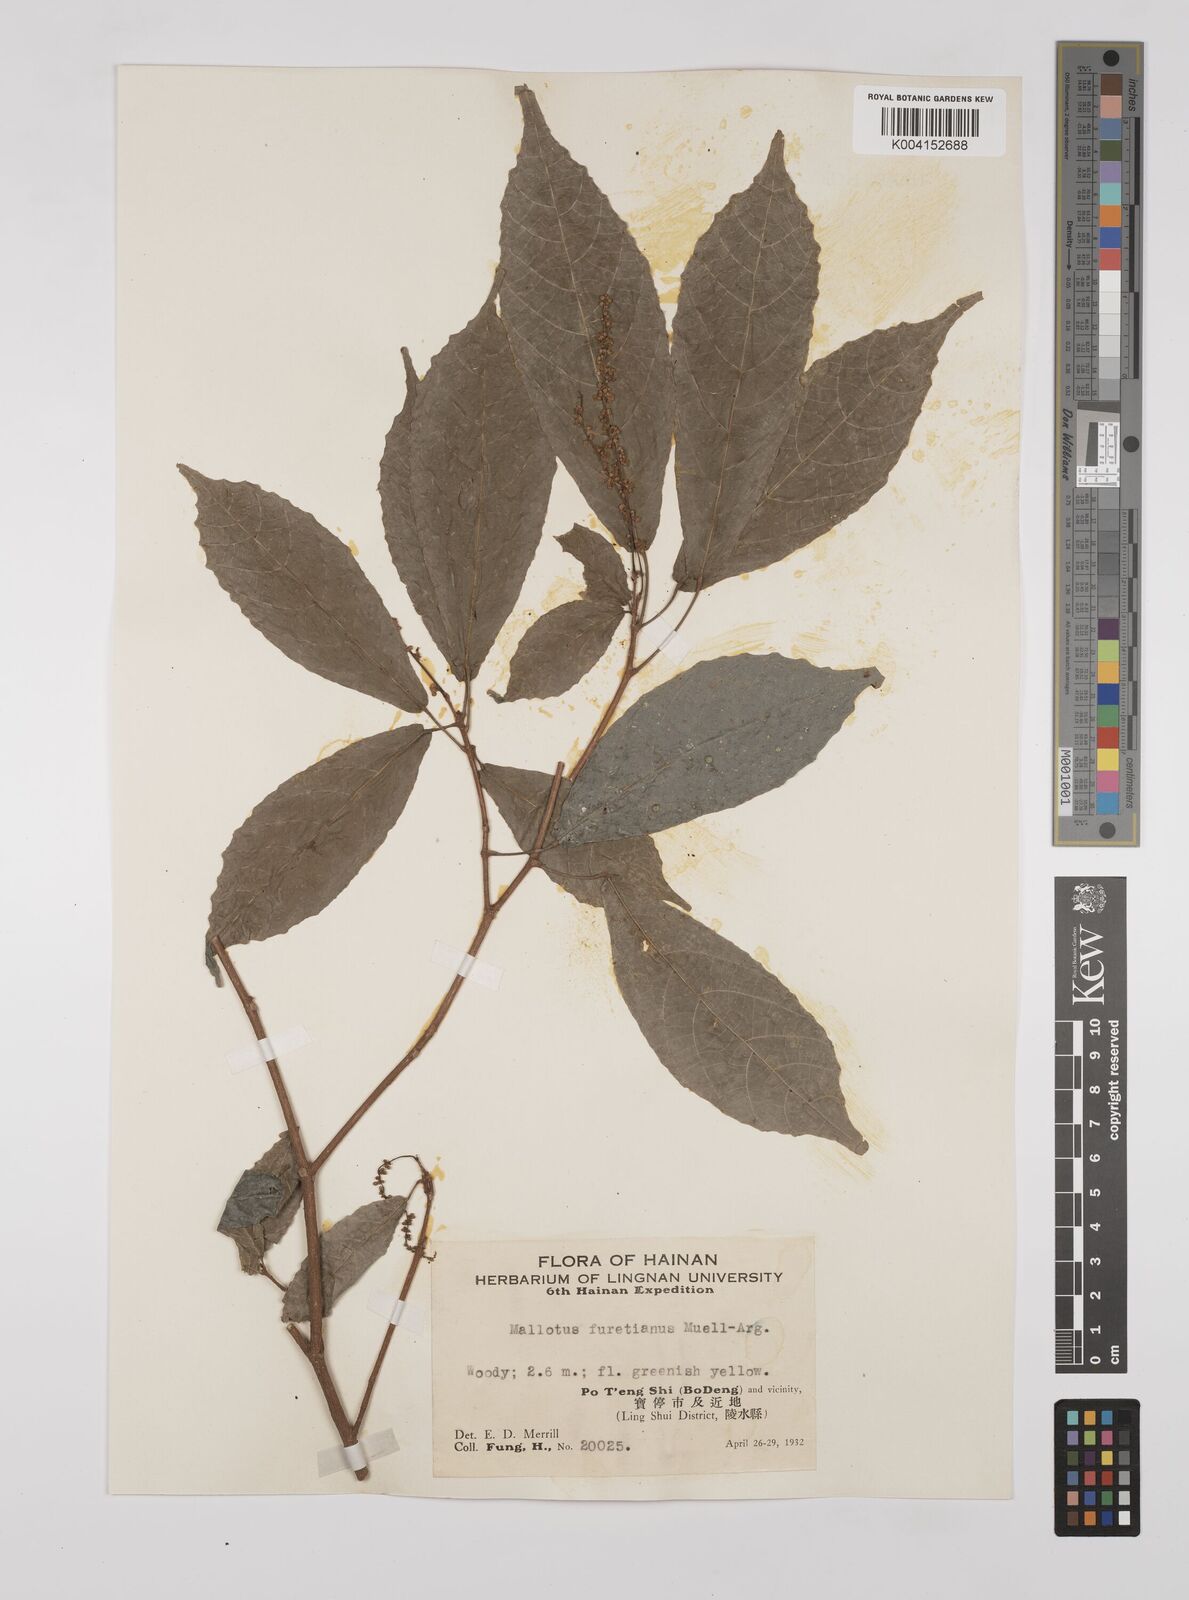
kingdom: Plantae
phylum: Tracheophyta
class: Magnoliopsida
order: Malpighiales
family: Euphorbiaceae
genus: Mallotus
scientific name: Mallotus peltatus
